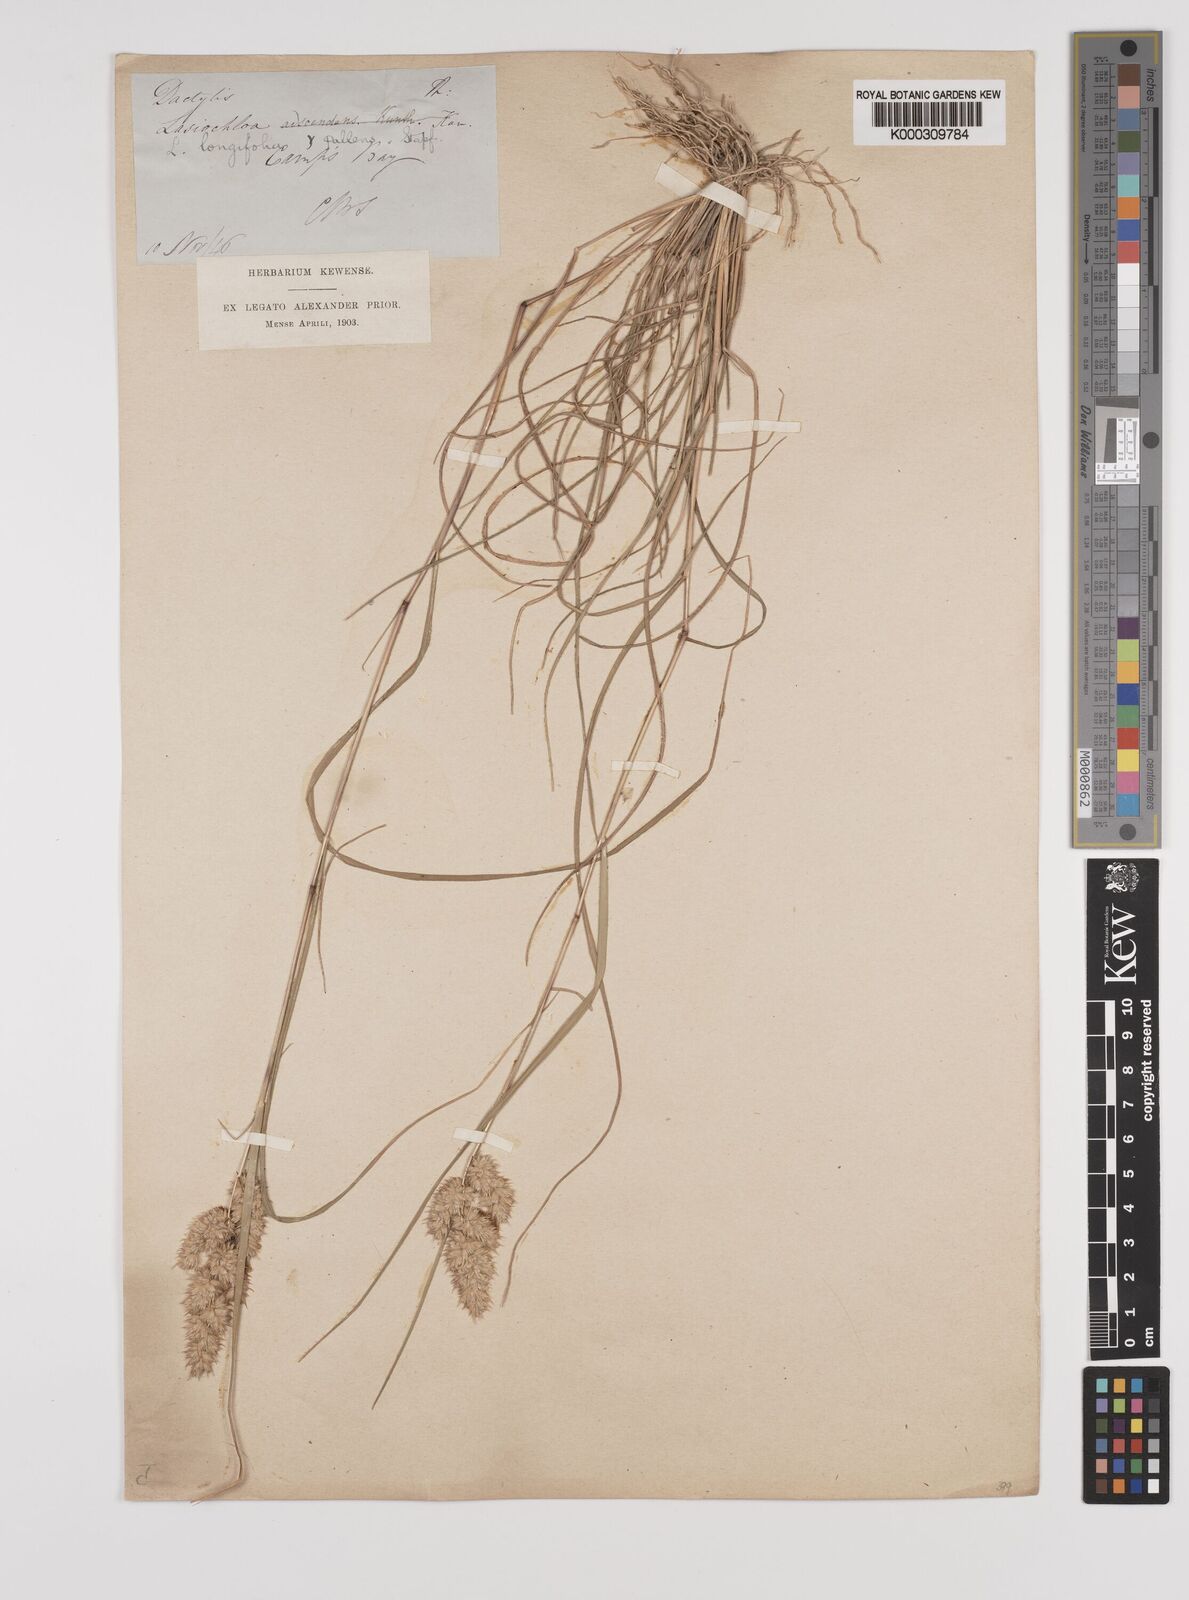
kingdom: Plantae
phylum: Tracheophyta
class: Liliopsida
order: Poales
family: Poaceae
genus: Tribolium
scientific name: Tribolium hispidum
